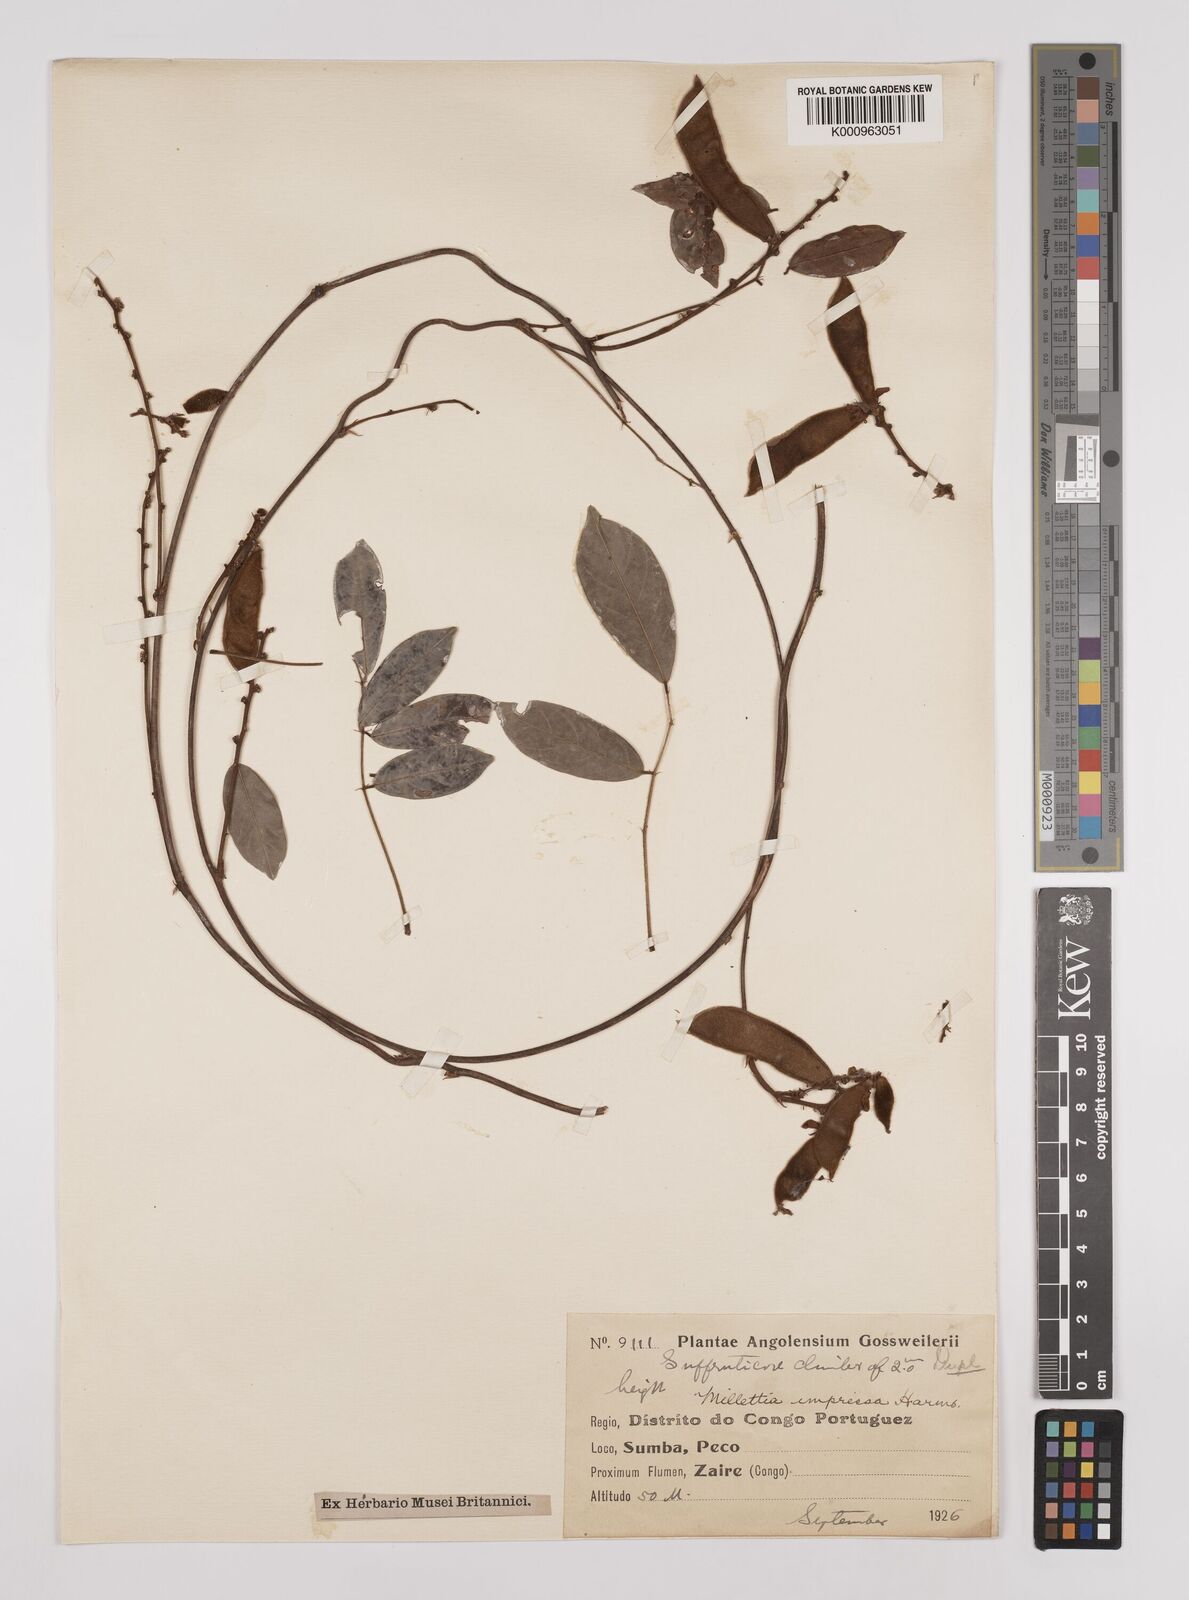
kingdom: Plantae
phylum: Tracheophyta
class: Magnoliopsida
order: Fabales
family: Fabaceae
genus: Millettia
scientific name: Millettia impressa
